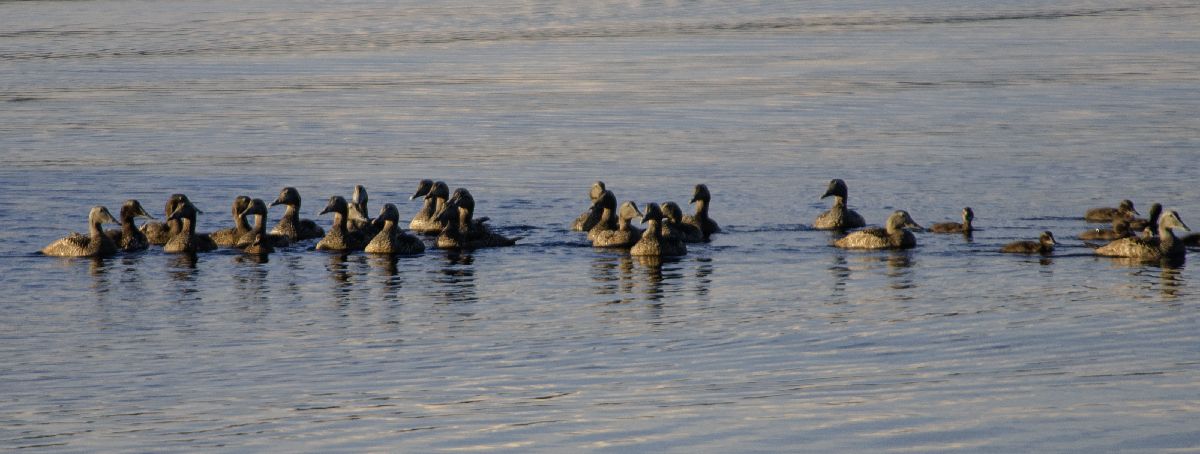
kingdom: Animalia
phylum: Chordata
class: Aves
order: Anseriformes
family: Anatidae
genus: Somateria
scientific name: Somateria mollissima
